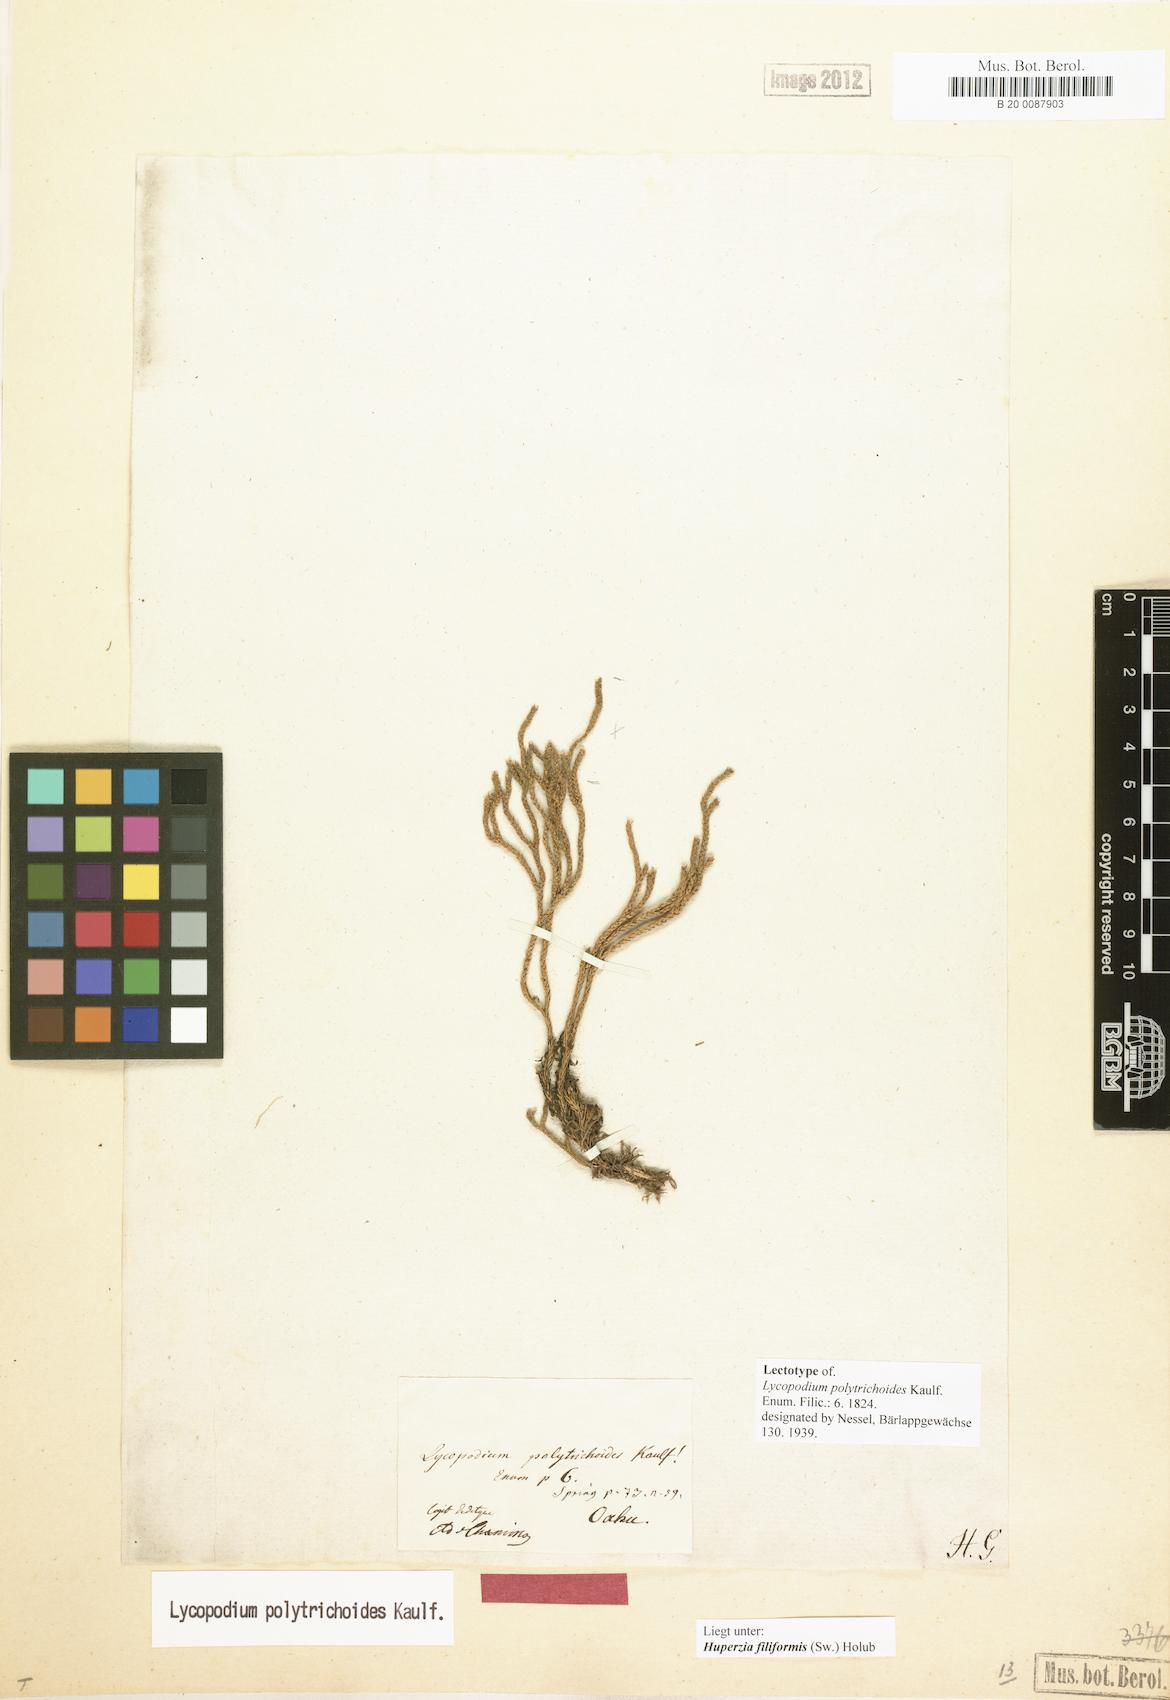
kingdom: Plantae
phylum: Tracheophyta
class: Lycopodiopsida
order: Lycopodiales
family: Lycopodiaceae
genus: Phlegmariurus
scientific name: Phlegmariurus filiformis
